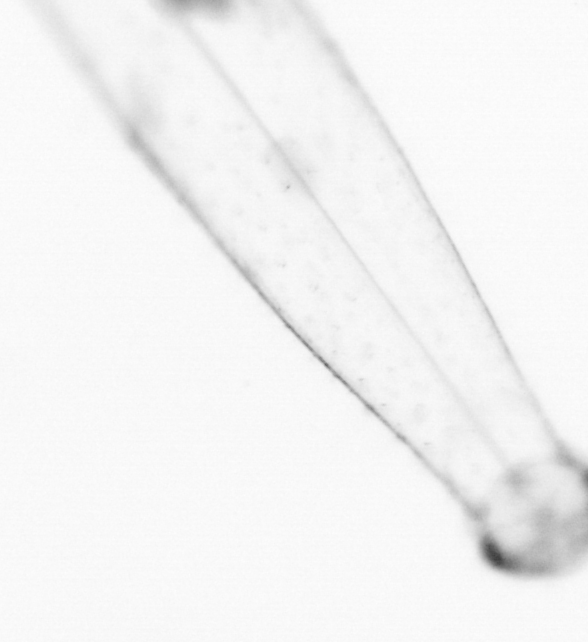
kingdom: Animalia
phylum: Chaetognatha
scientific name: Chaetognatha
